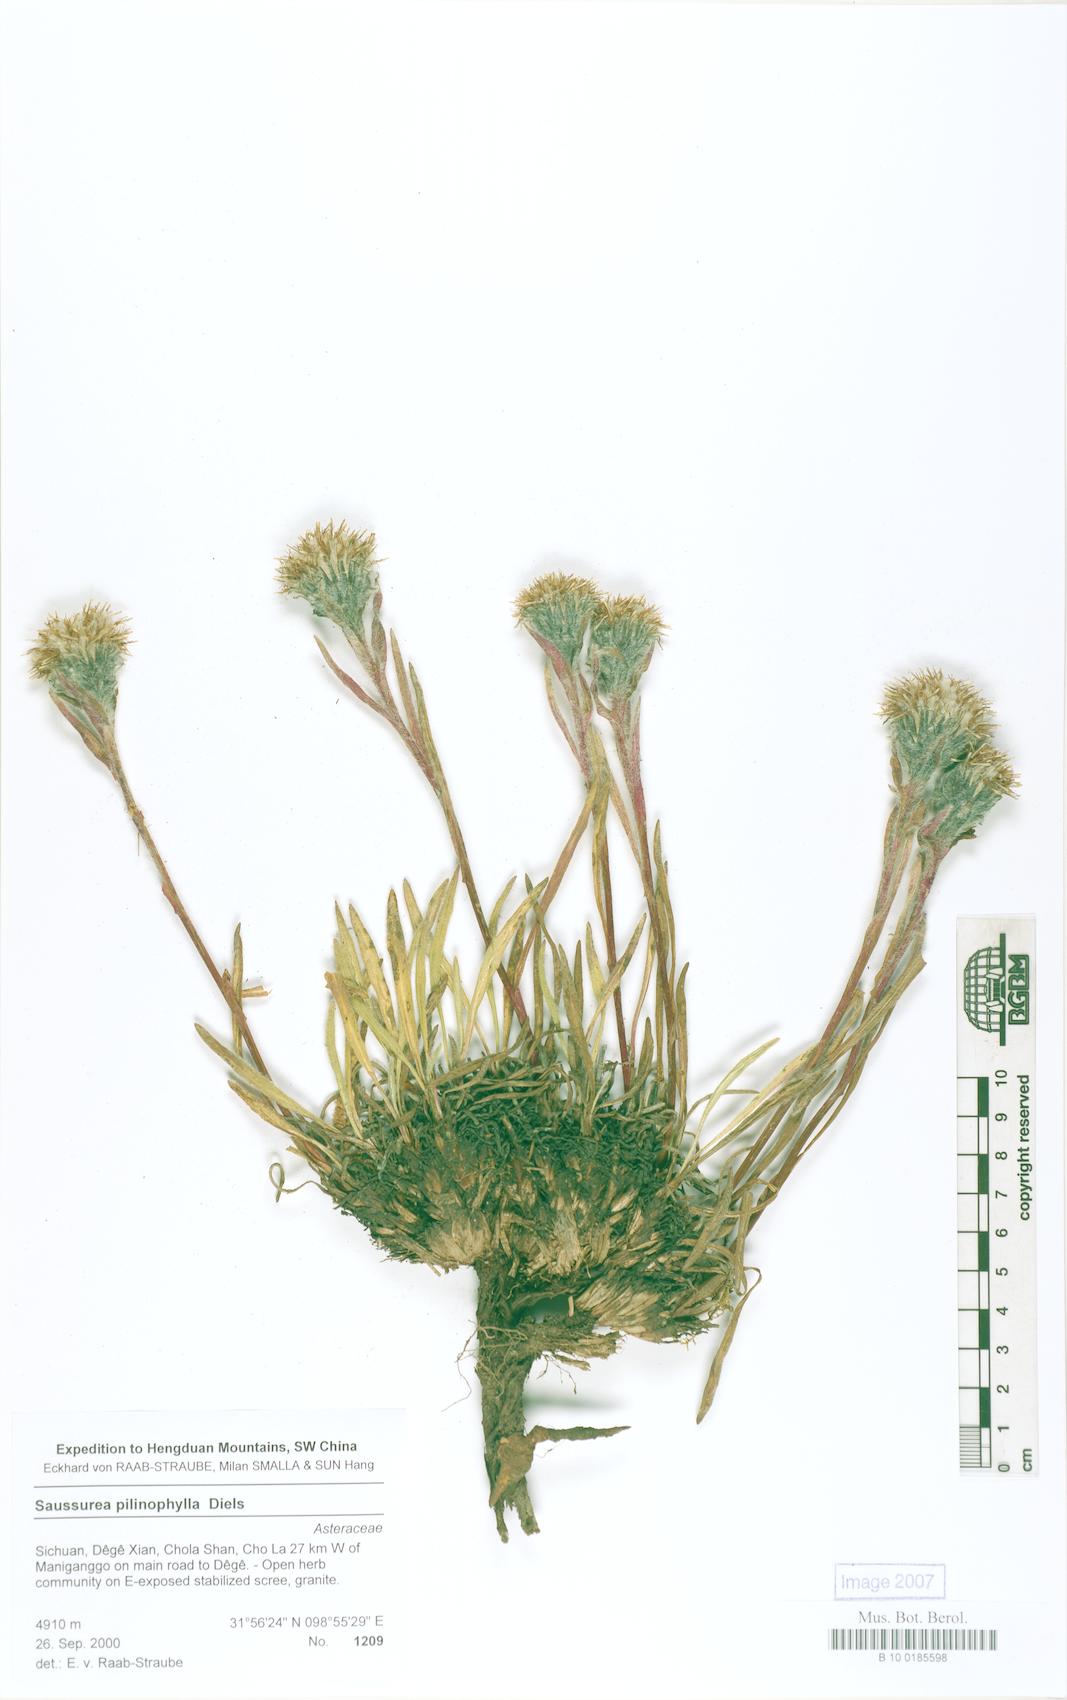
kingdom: Plantae
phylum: Tracheophyta
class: Magnoliopsida
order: Asterales
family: Asteraceae
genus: Saussurea
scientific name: Saussurea pilinophylla
